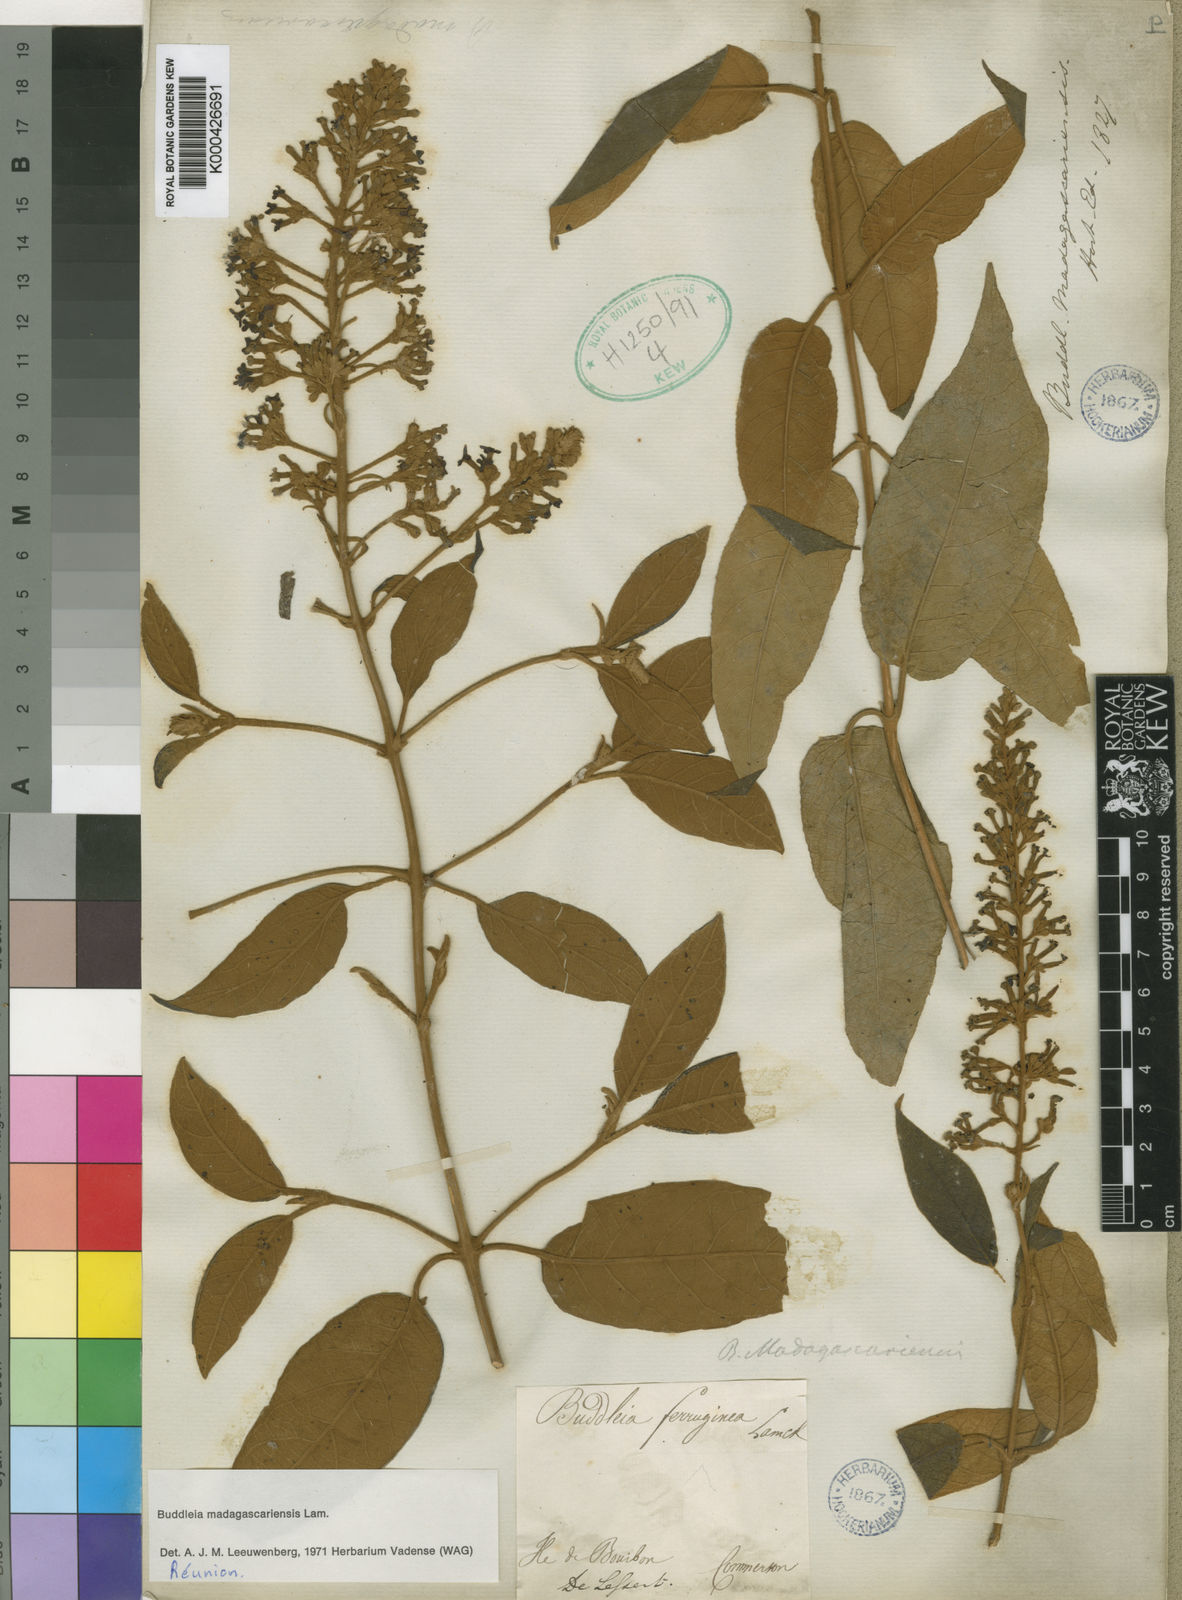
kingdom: Plantae
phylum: Tracheophyta
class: Magnoliopsida
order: Lamiales
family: Scrophulariaceae
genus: Buddleja
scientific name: Buddleja madagascariensis
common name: Smokebush
